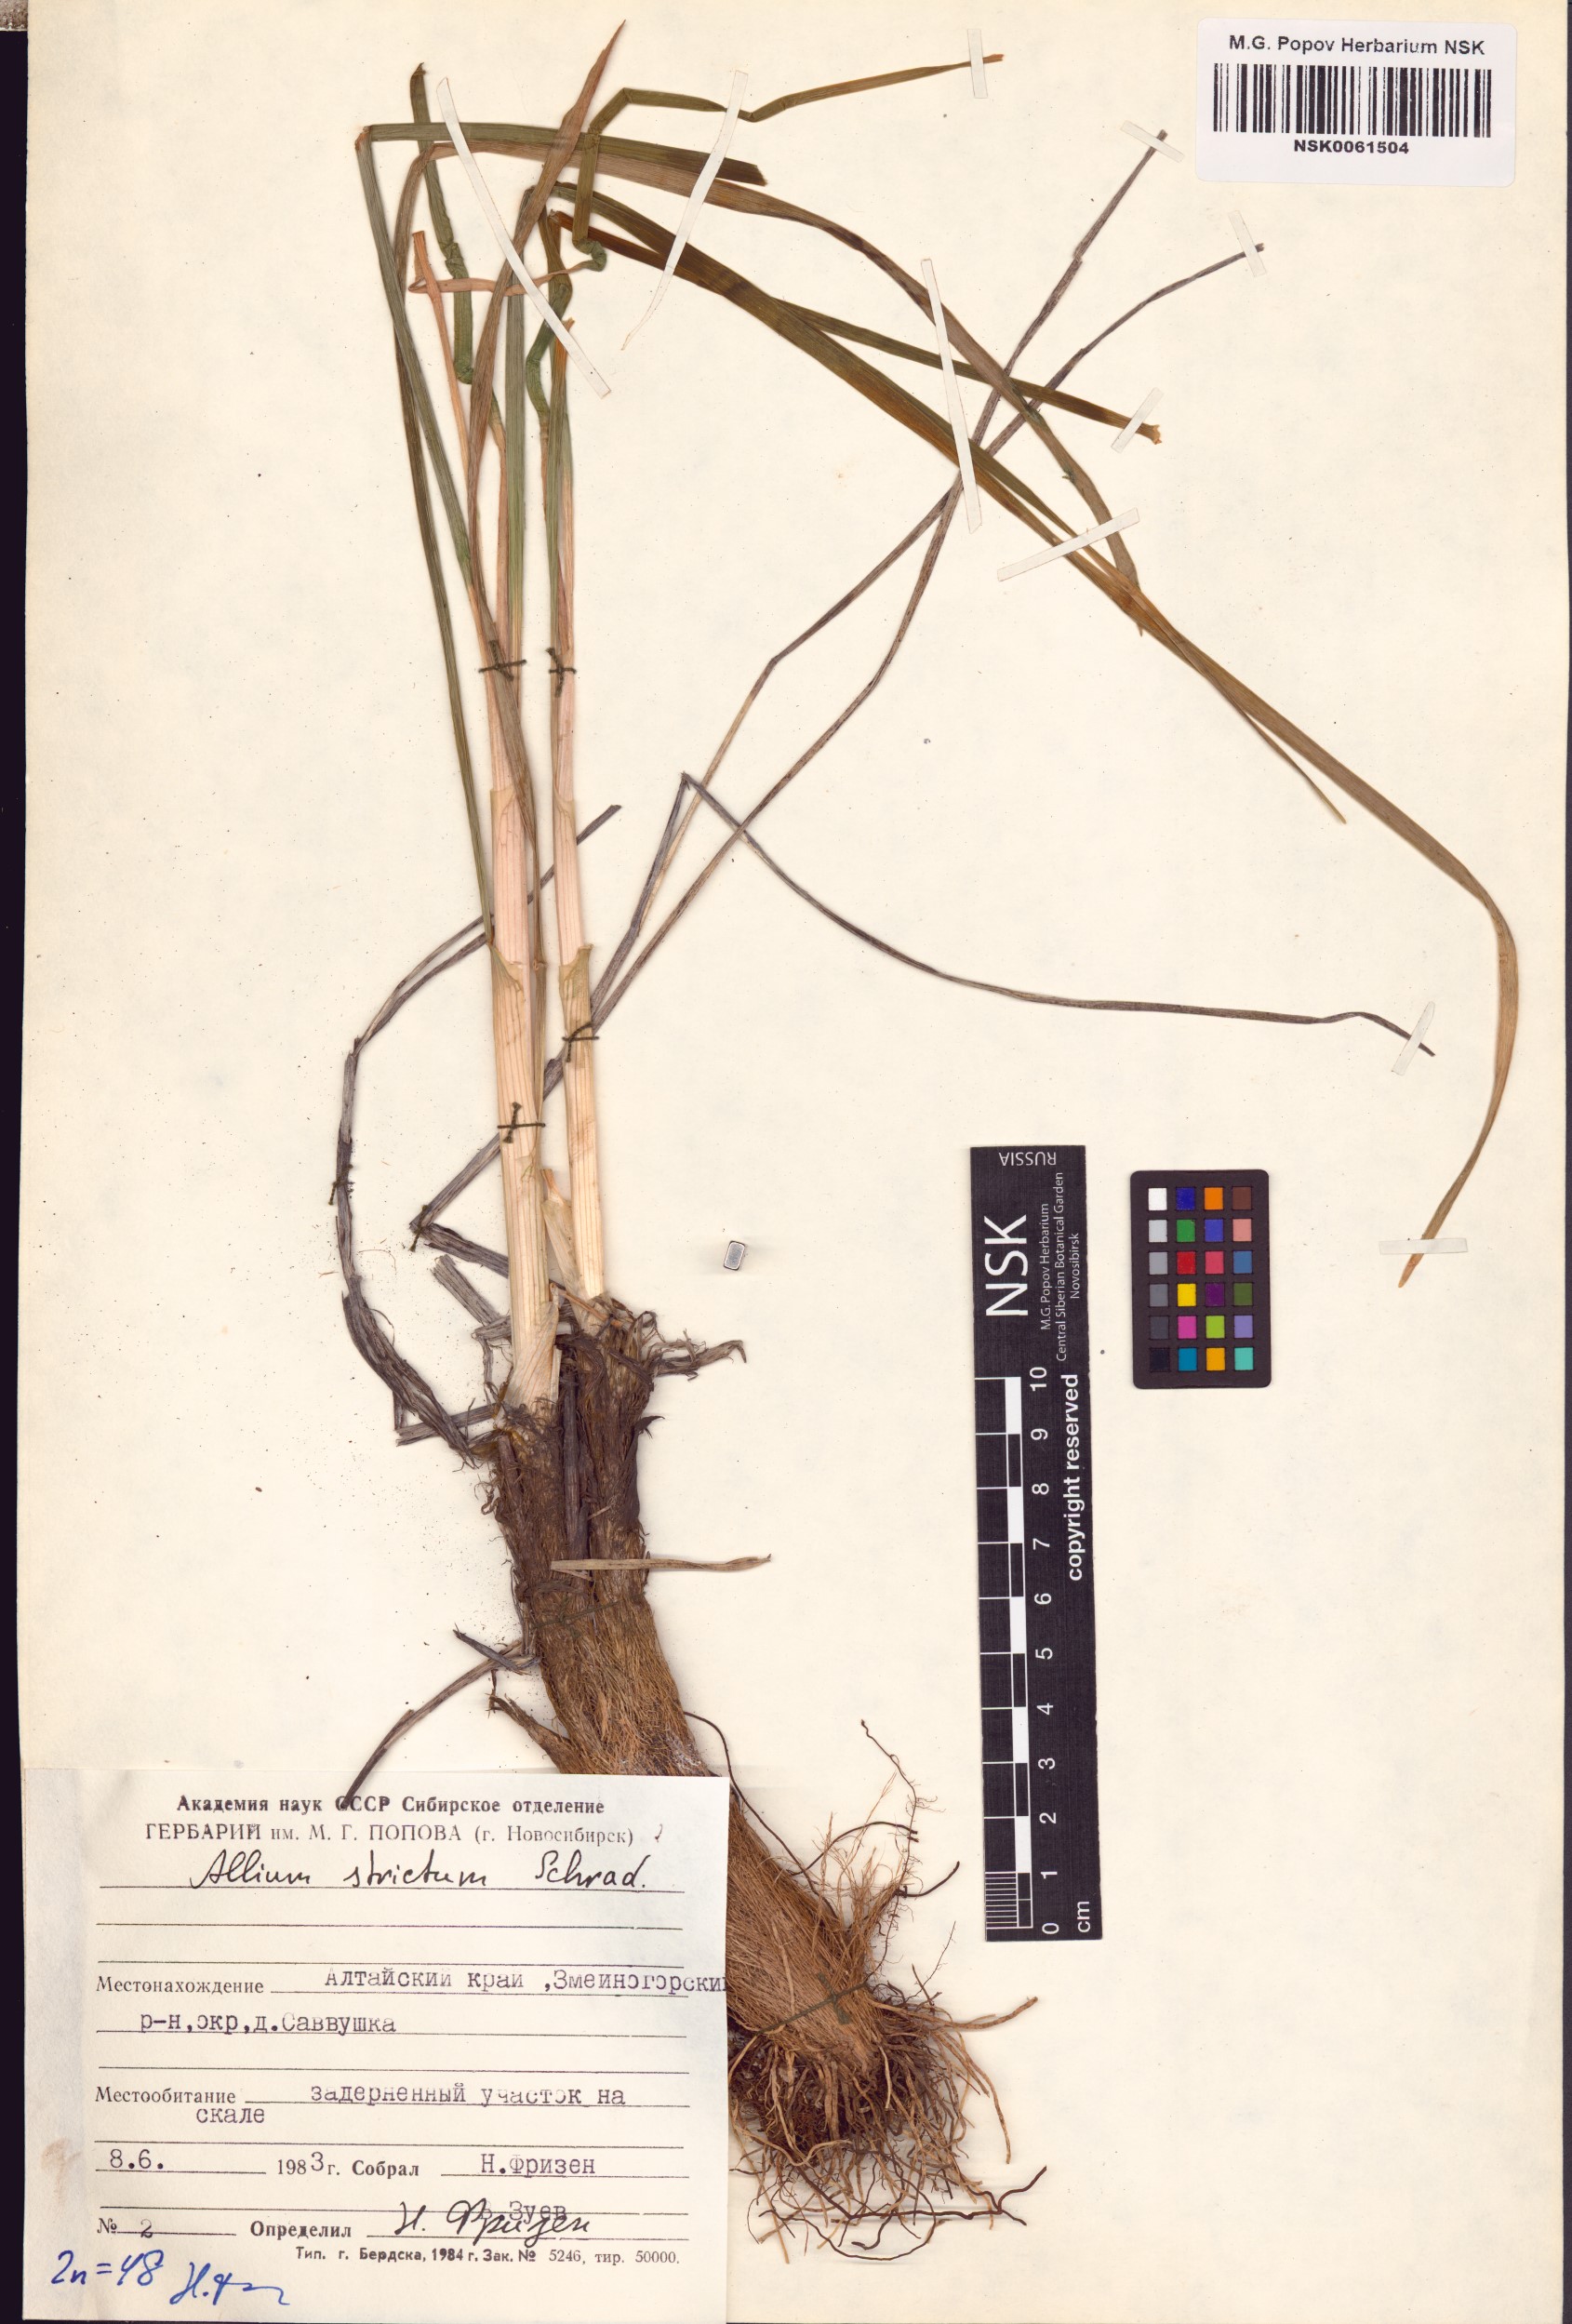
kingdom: Plantae
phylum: Tracheophyta
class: Liliopsida
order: Asparagales
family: Amaryllidaceae
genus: Allium
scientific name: Allium strictum
